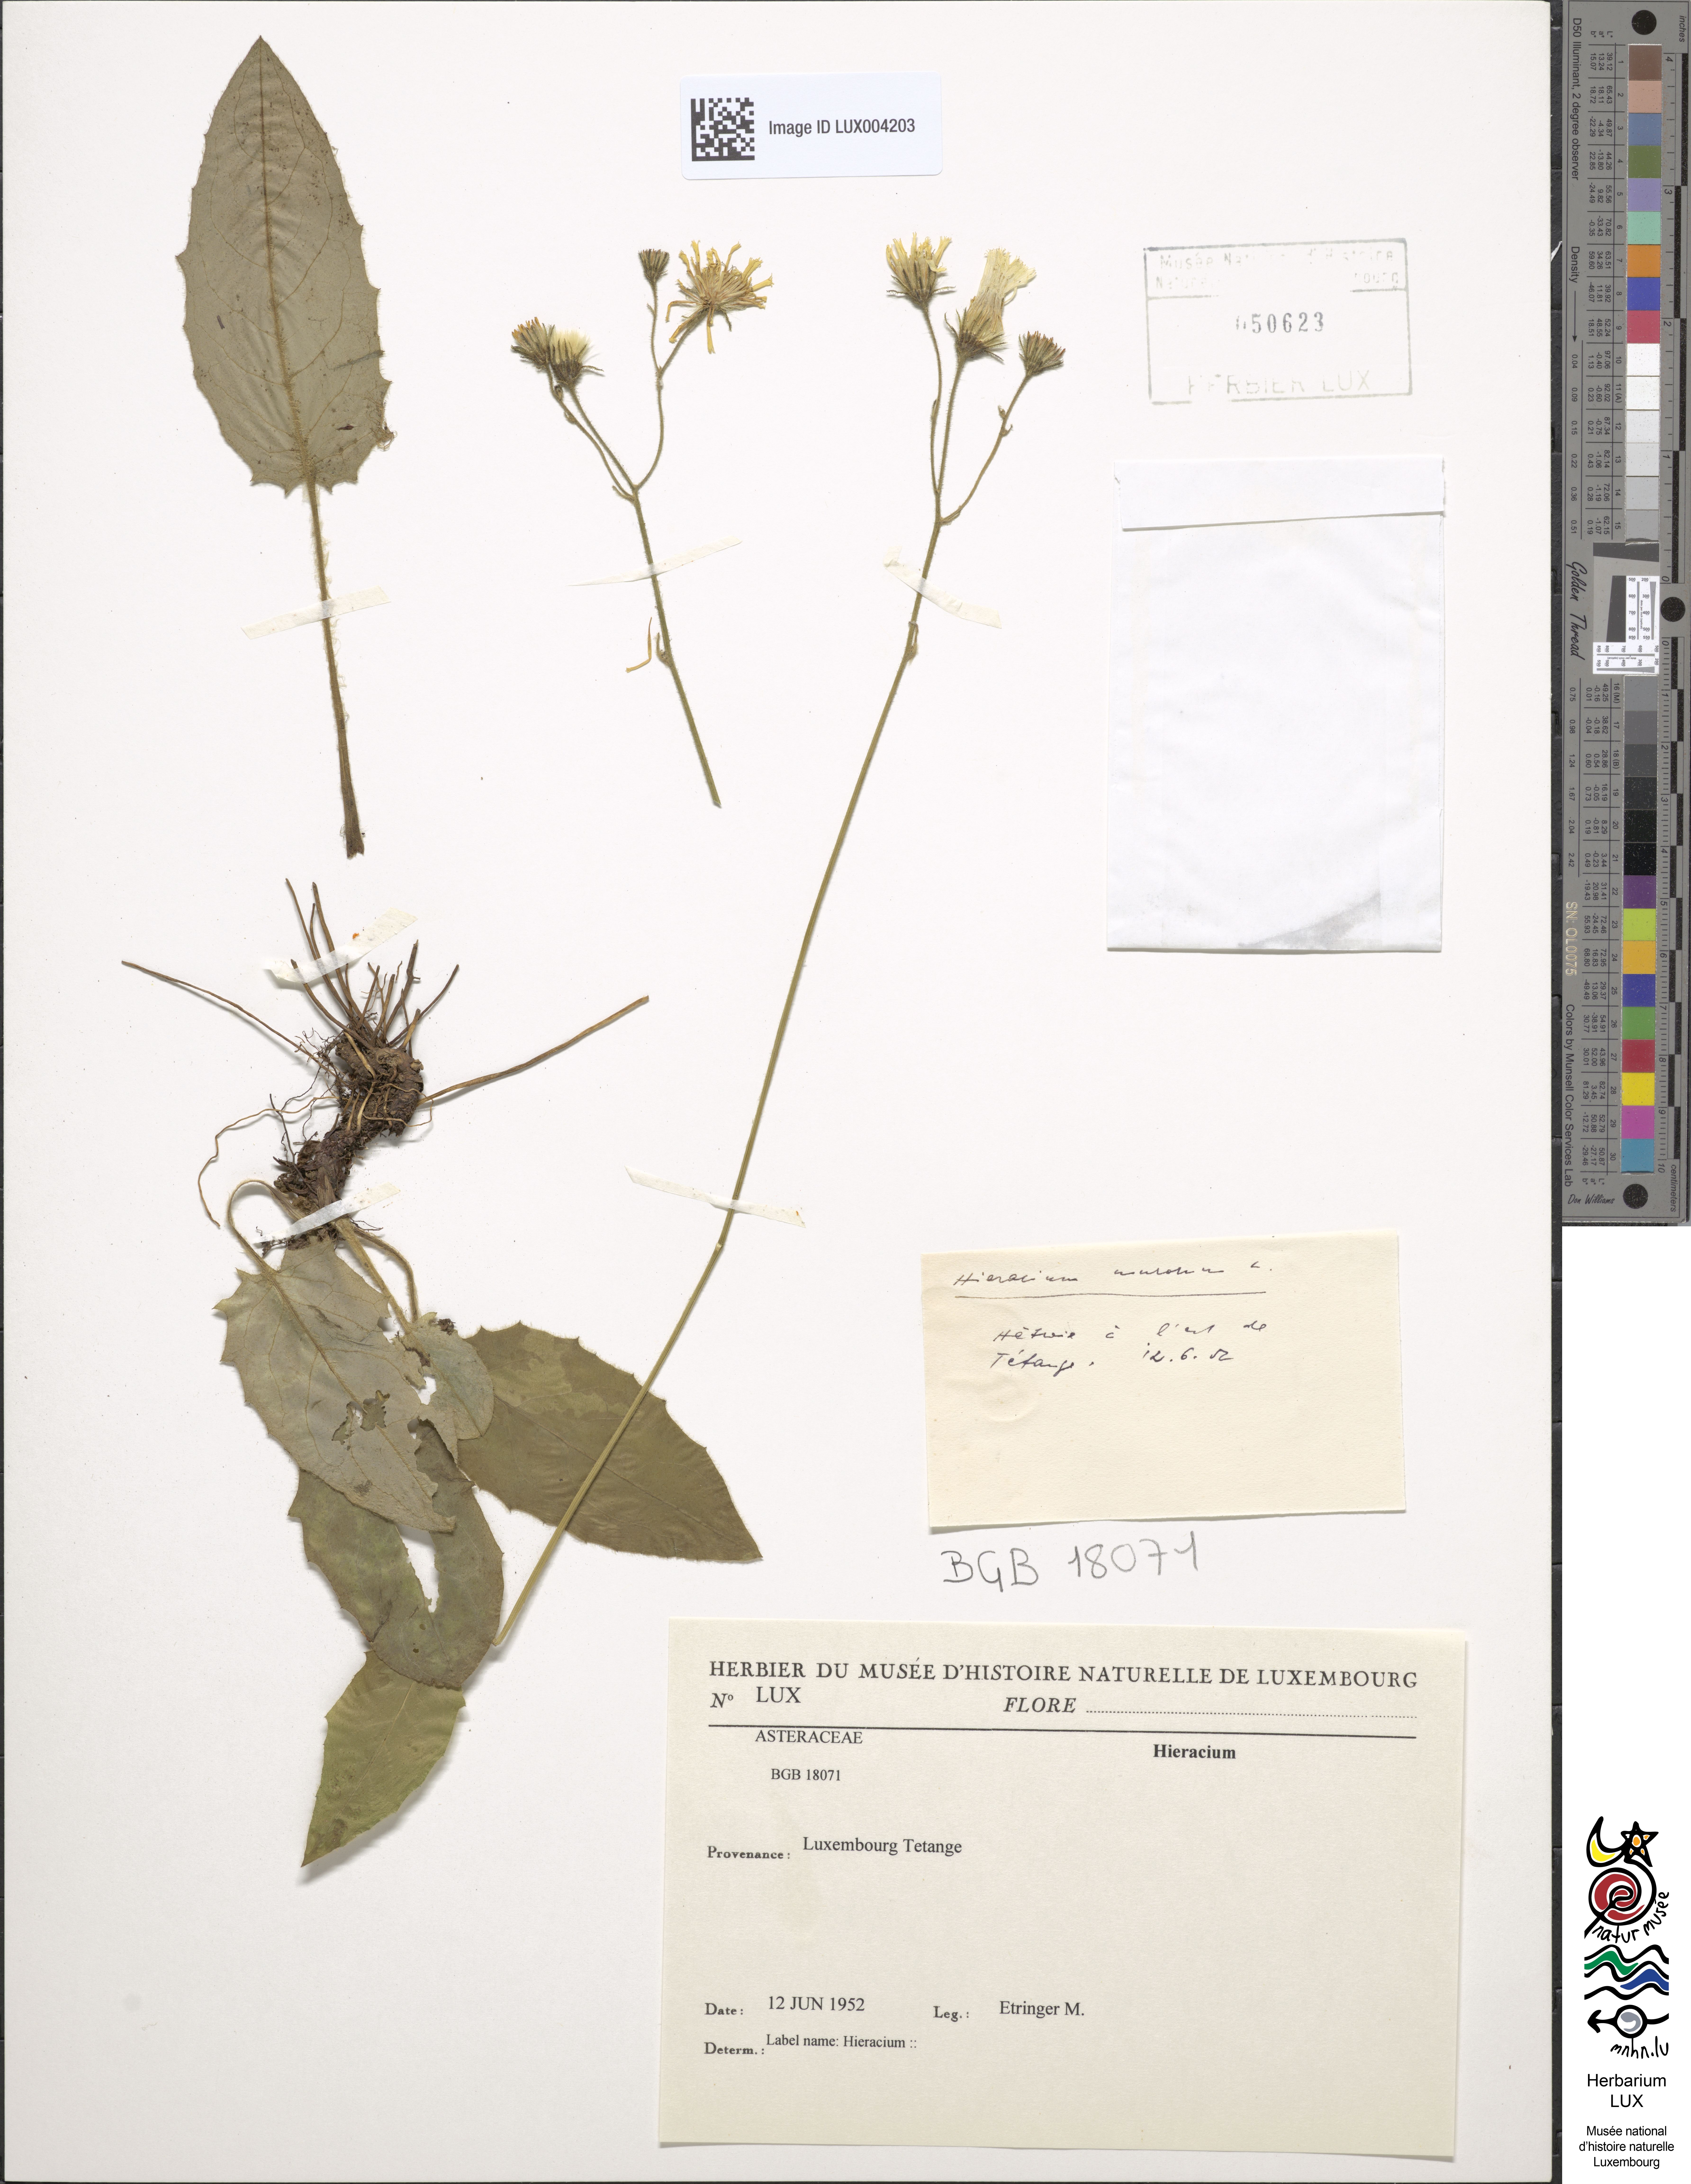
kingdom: Plantae
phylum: Tracheophyta
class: Magnoliopsida
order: Asterales
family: Asteraceae
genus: Hieracium
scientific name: Hieracium
